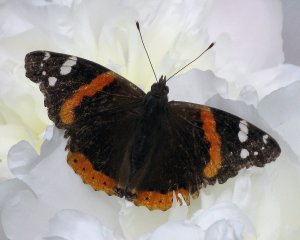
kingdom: Animalia
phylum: Arthropoda
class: Insecta
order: Lepidoptera
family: Nymphalidae
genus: Vanessa
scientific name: Vanessa atalanta
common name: Red Admiral
